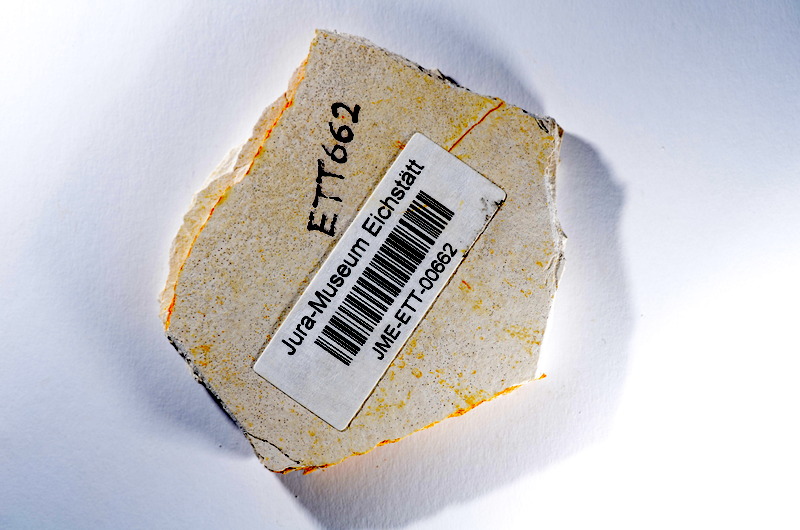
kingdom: Animalia
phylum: Chordata
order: Salmoniformes
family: Orthogonikleithridae
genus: Orthogonikleithrus
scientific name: Orthogonikleithrus hoelli
